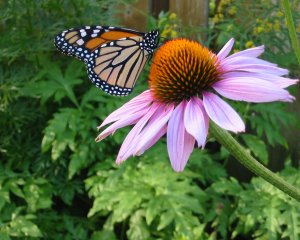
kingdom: Animalia
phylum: Arthropoda
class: Insecta
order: Lepidoptera
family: Nymphalidae
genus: Danaus
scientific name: Danaus plexippus
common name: Monarch
